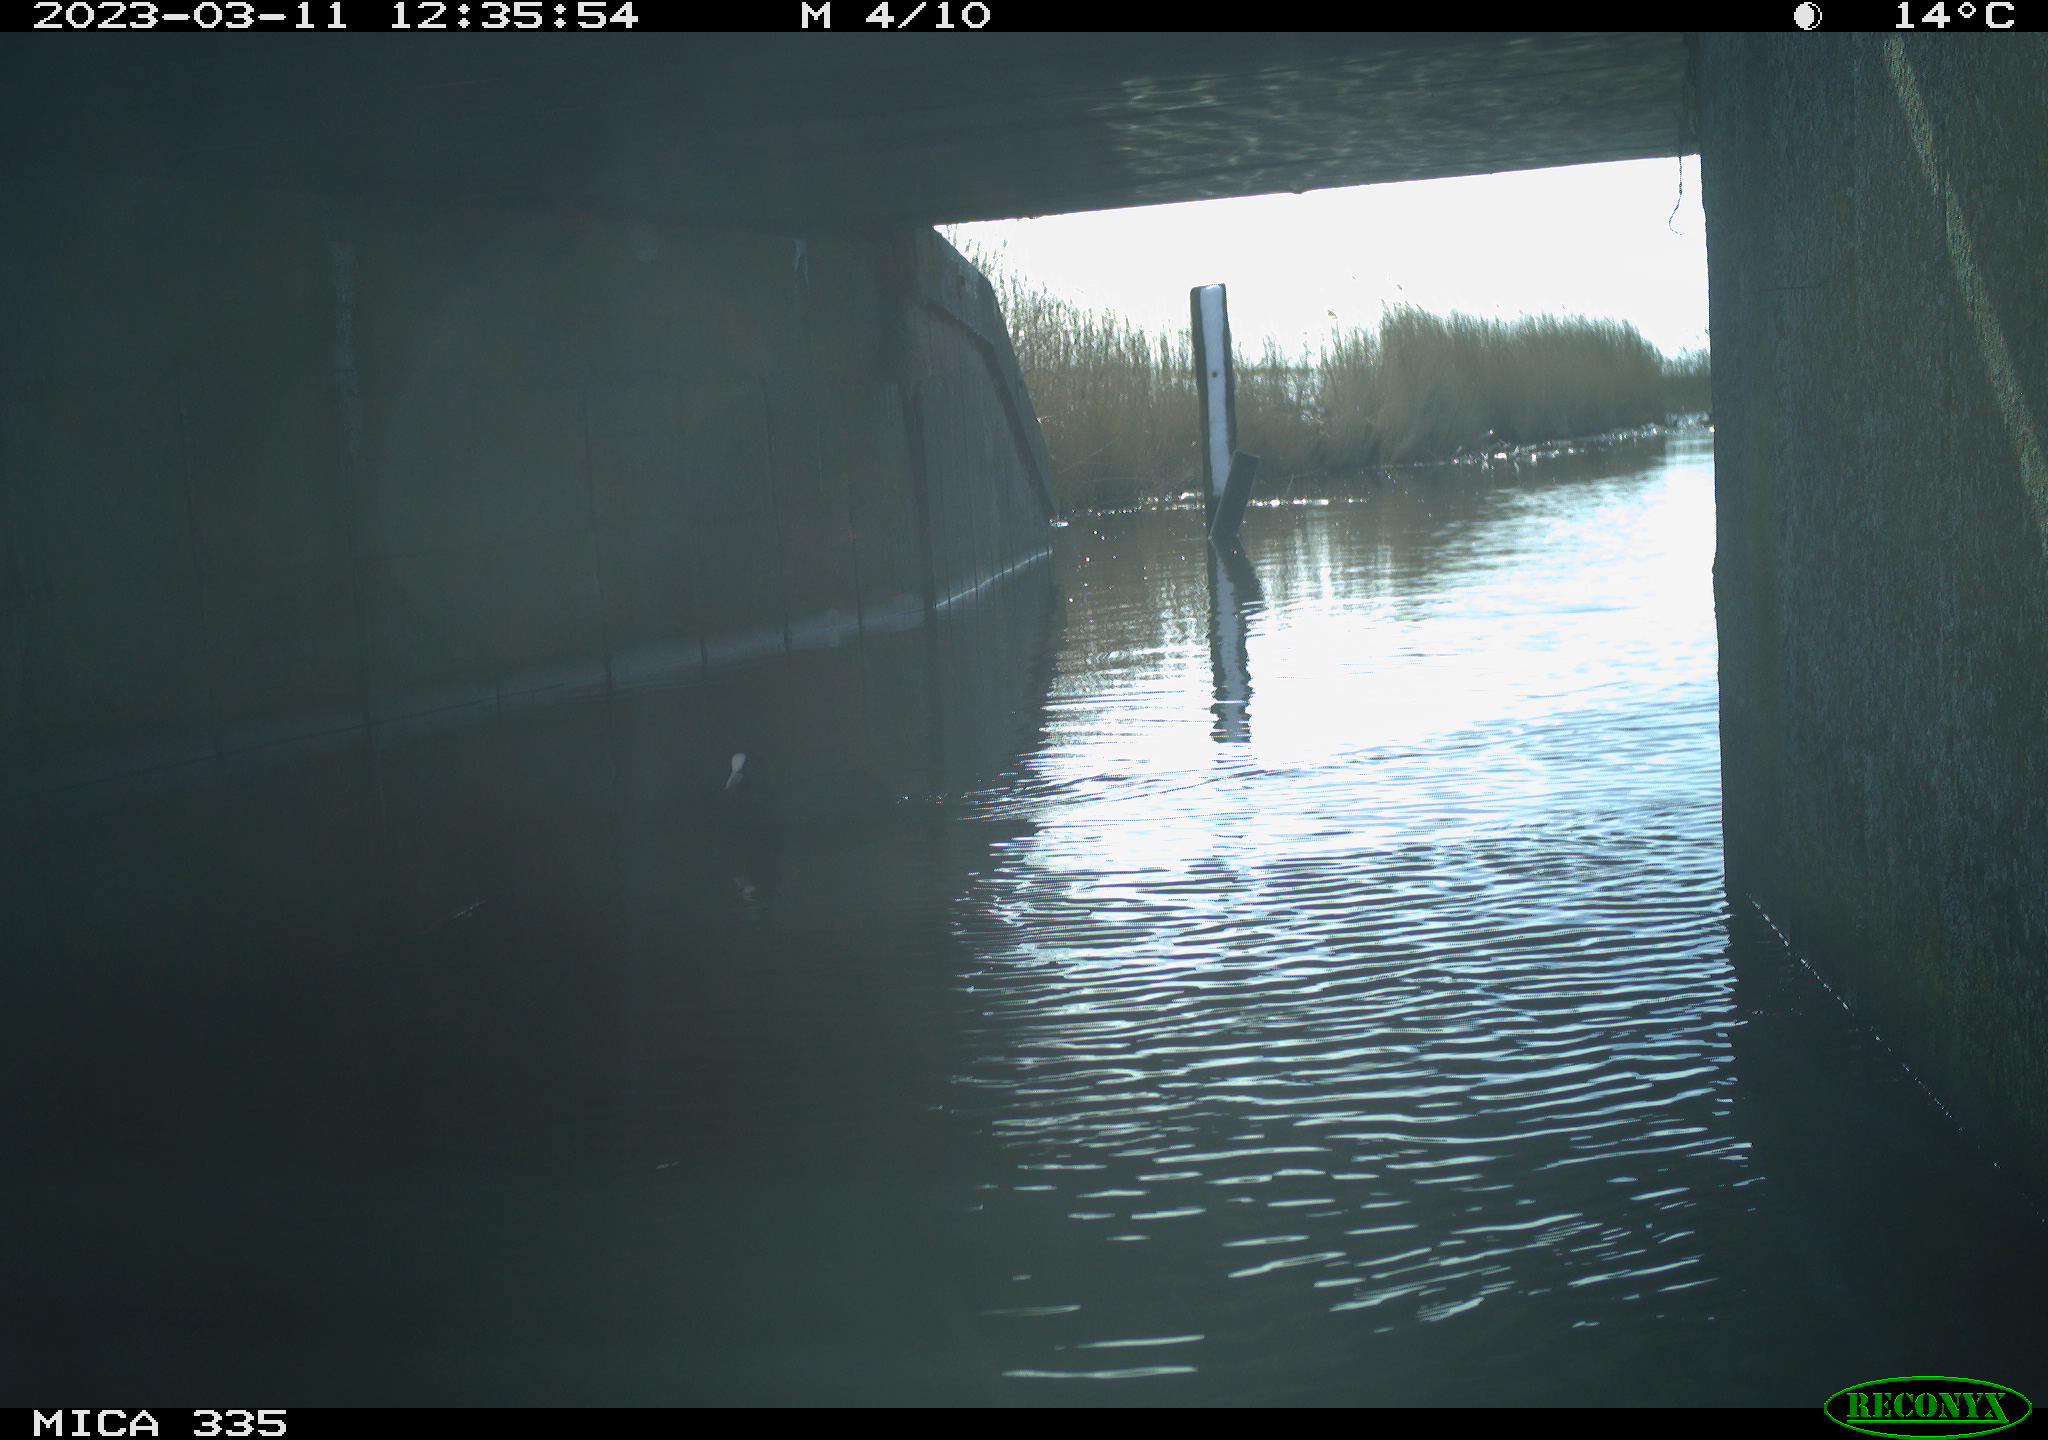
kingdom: Animalia
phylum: Chordata
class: Aves
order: Gruiformes
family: Rallidae
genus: Fulica
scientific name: Fulica atra
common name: Eurasian coot
